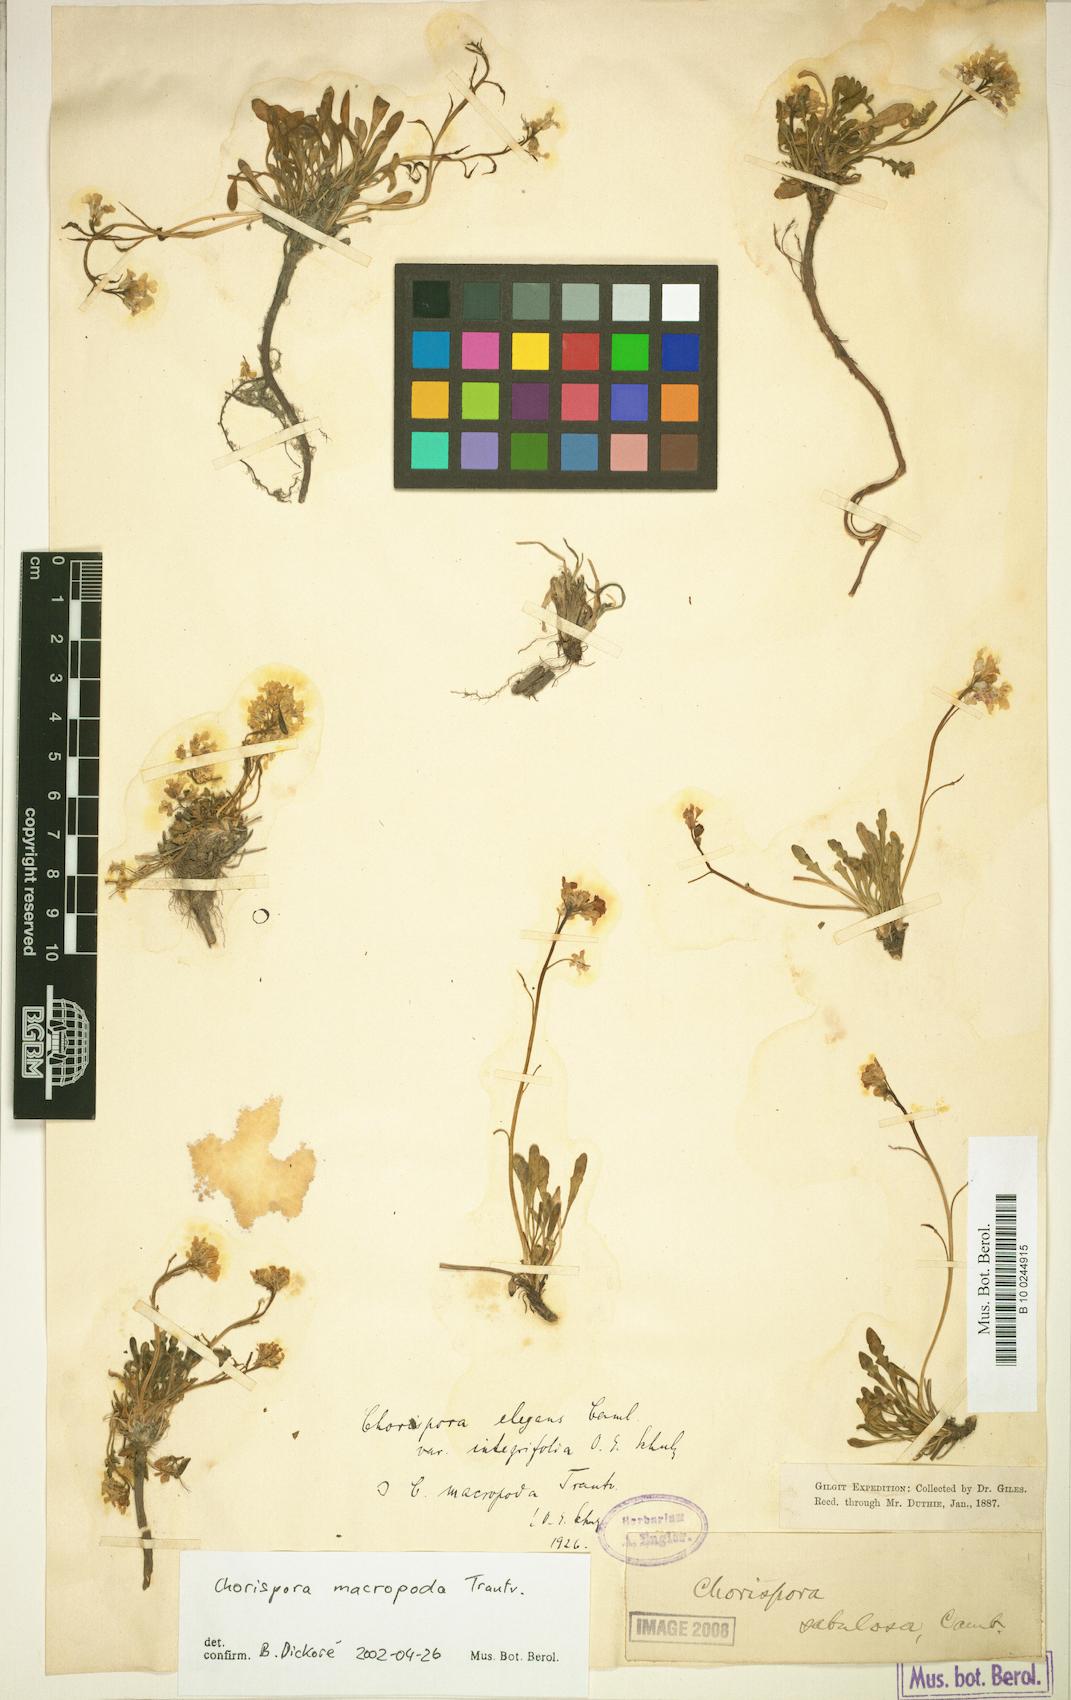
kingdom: Plantae
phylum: Tracheophyta
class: Magnoliopsida
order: Brassicales
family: Brassicaceae
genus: Chorispora
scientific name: Chorispora macropoda
